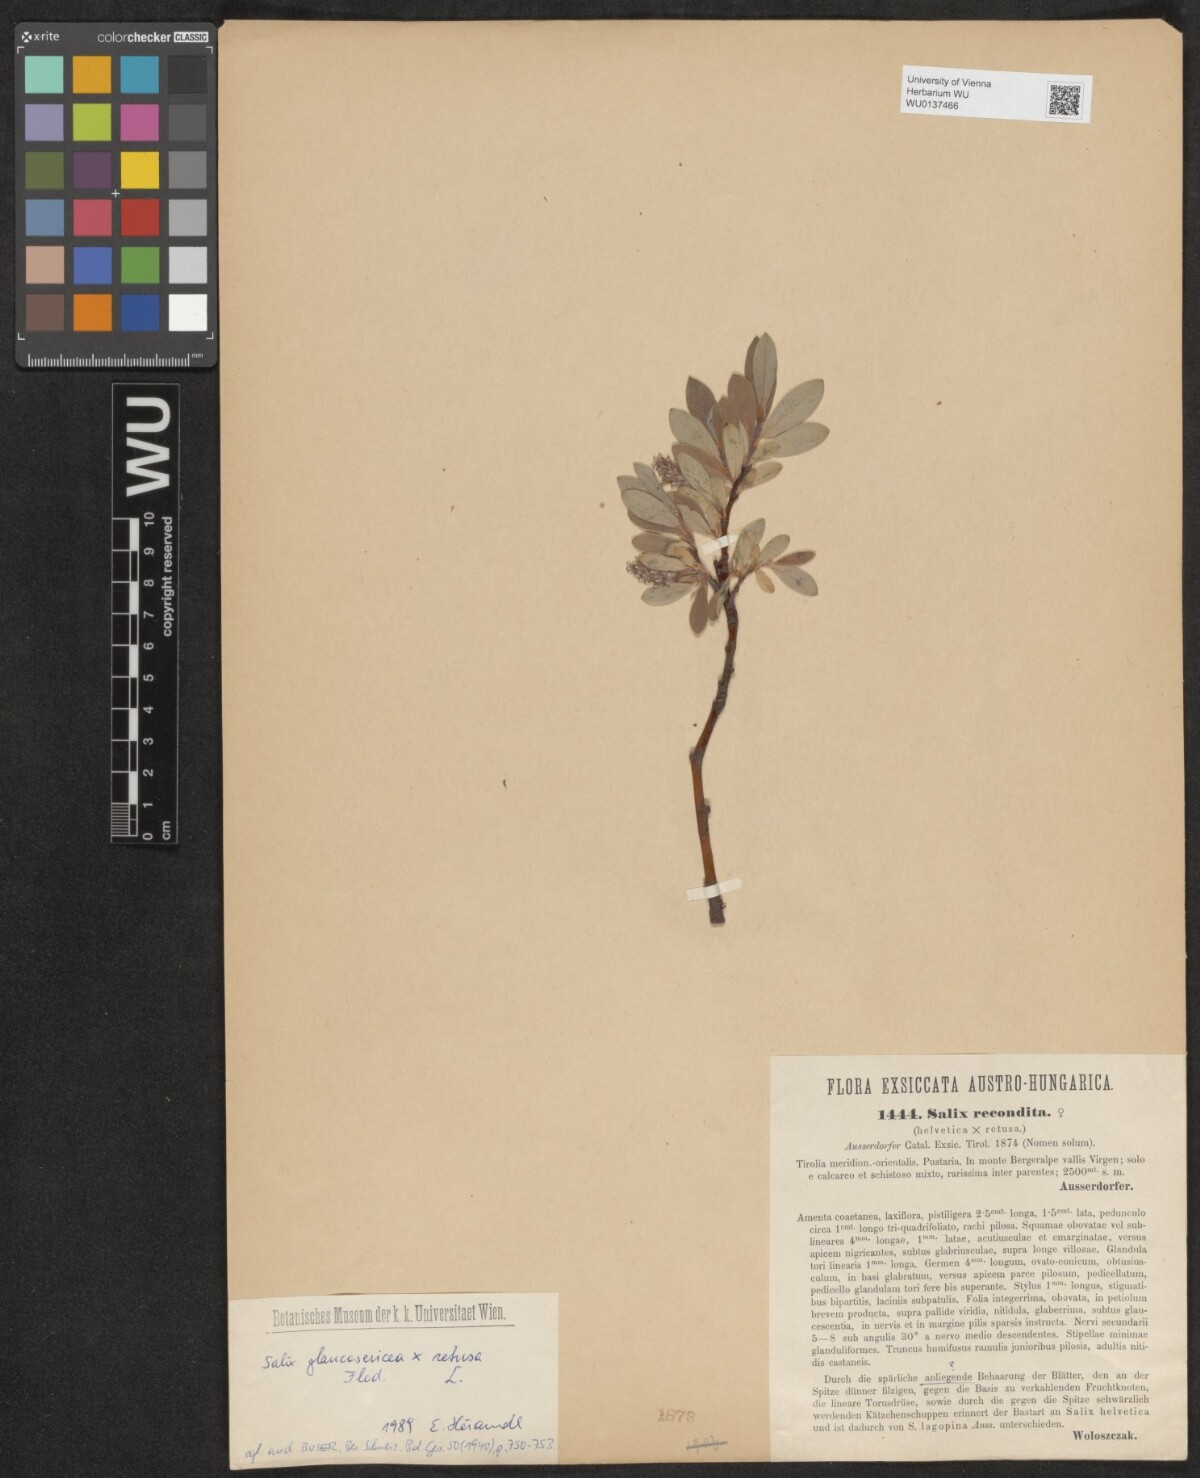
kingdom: Plantae
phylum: Tracheophyta
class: Magnoliopsida
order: Malpighiales
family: Salicaceae
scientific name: Salicaceae
